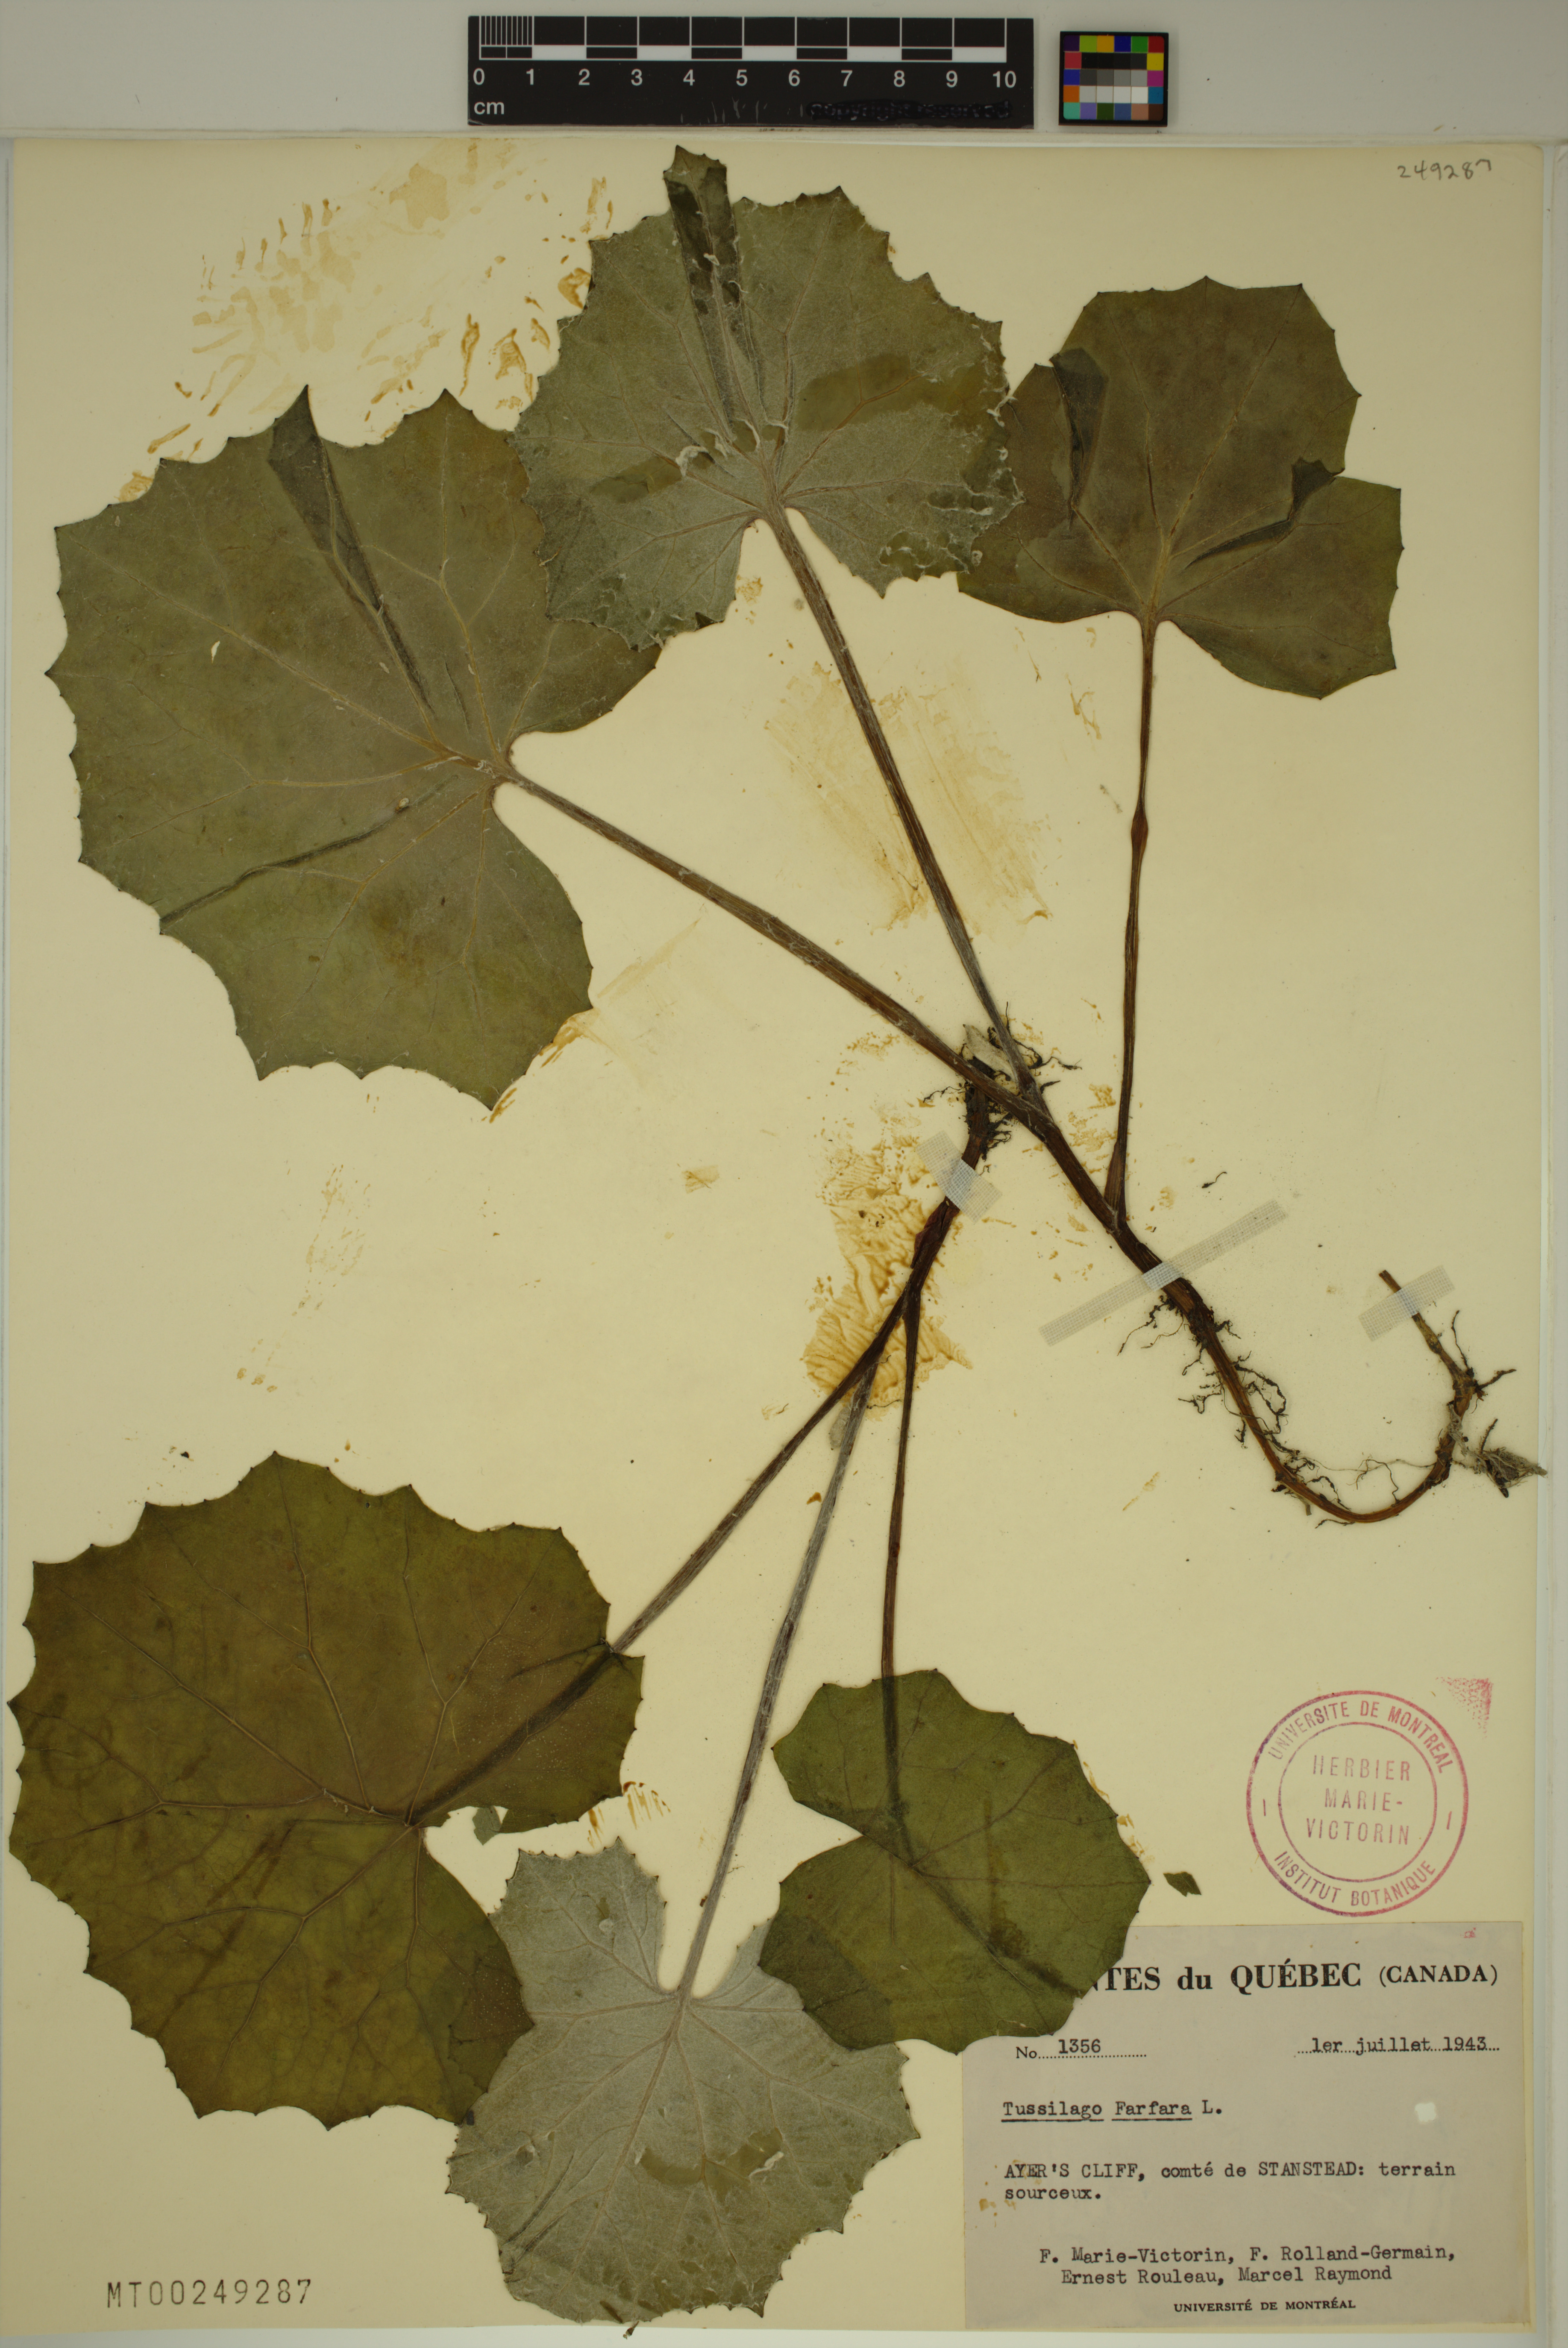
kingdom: Plantae
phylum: Tracheophyta
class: Magnoliopsida
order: Asterales
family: Asteraceae
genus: Tussilago
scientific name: Tussilago farfara
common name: Coltsfoot
